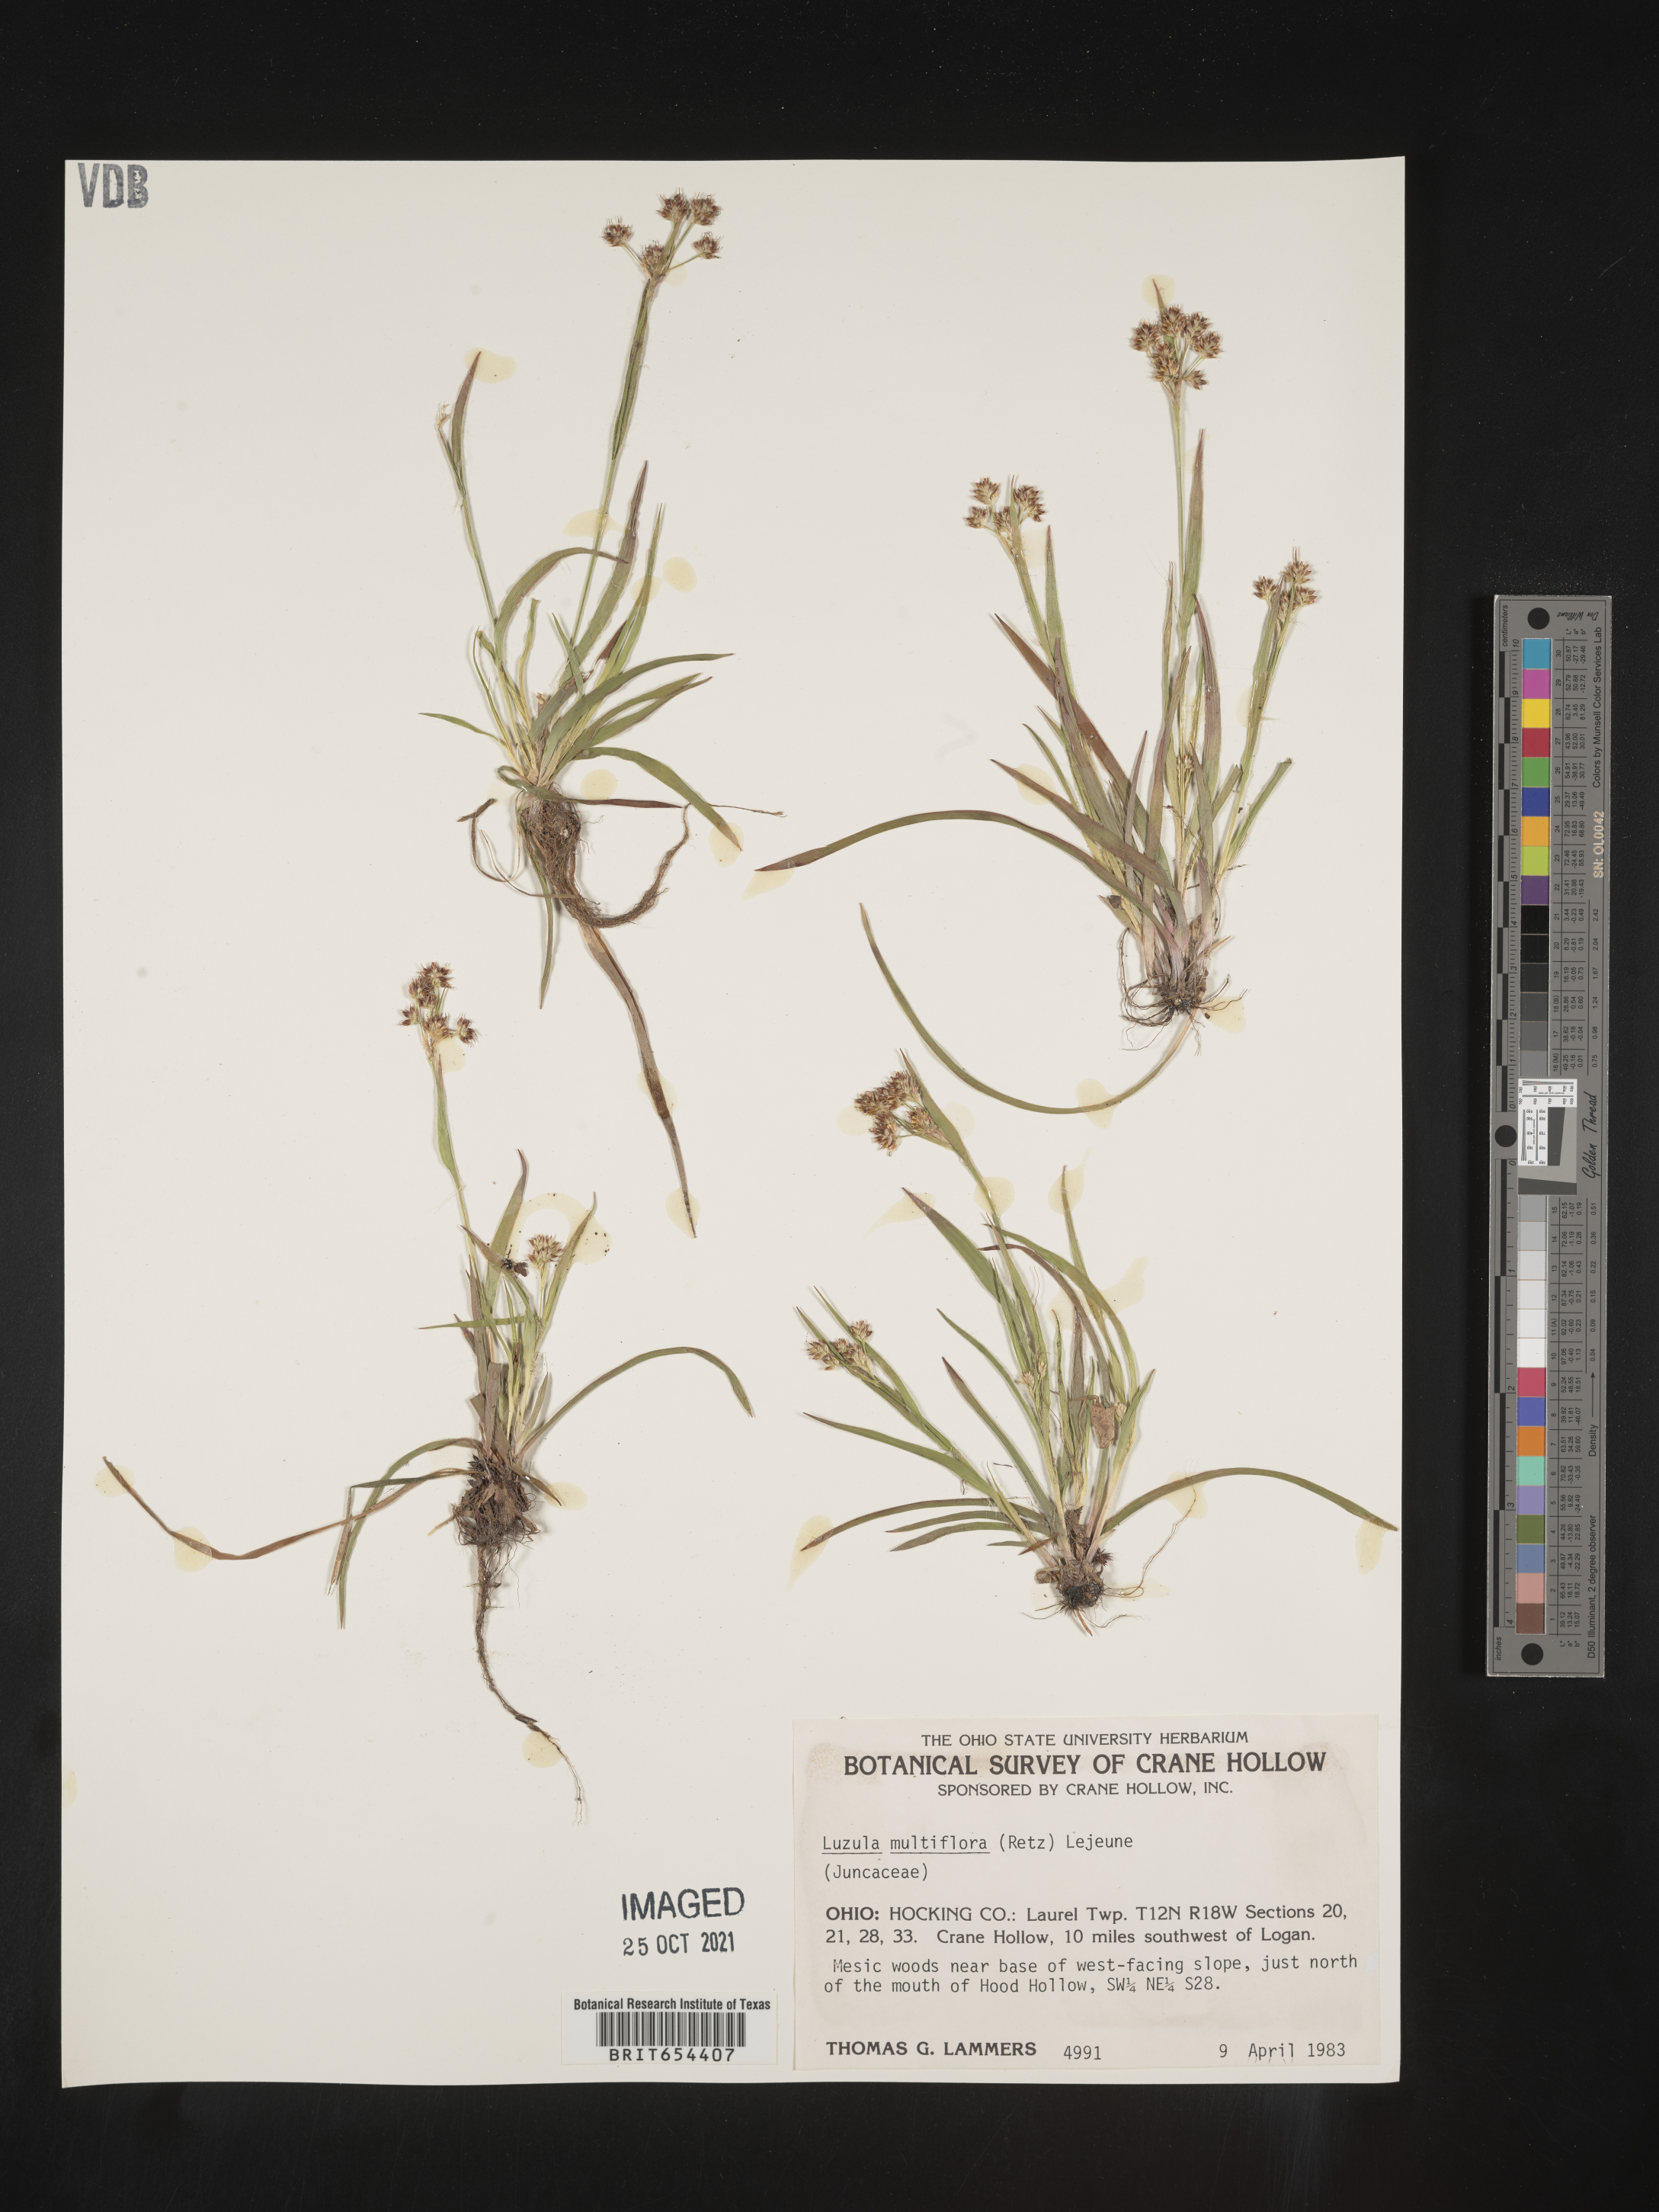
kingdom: Plantae
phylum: Tracheophyta
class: Liliopsida
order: Poales
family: Juncaceae
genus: Luzula
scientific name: Luzula multiflora
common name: Heath wood-rush
